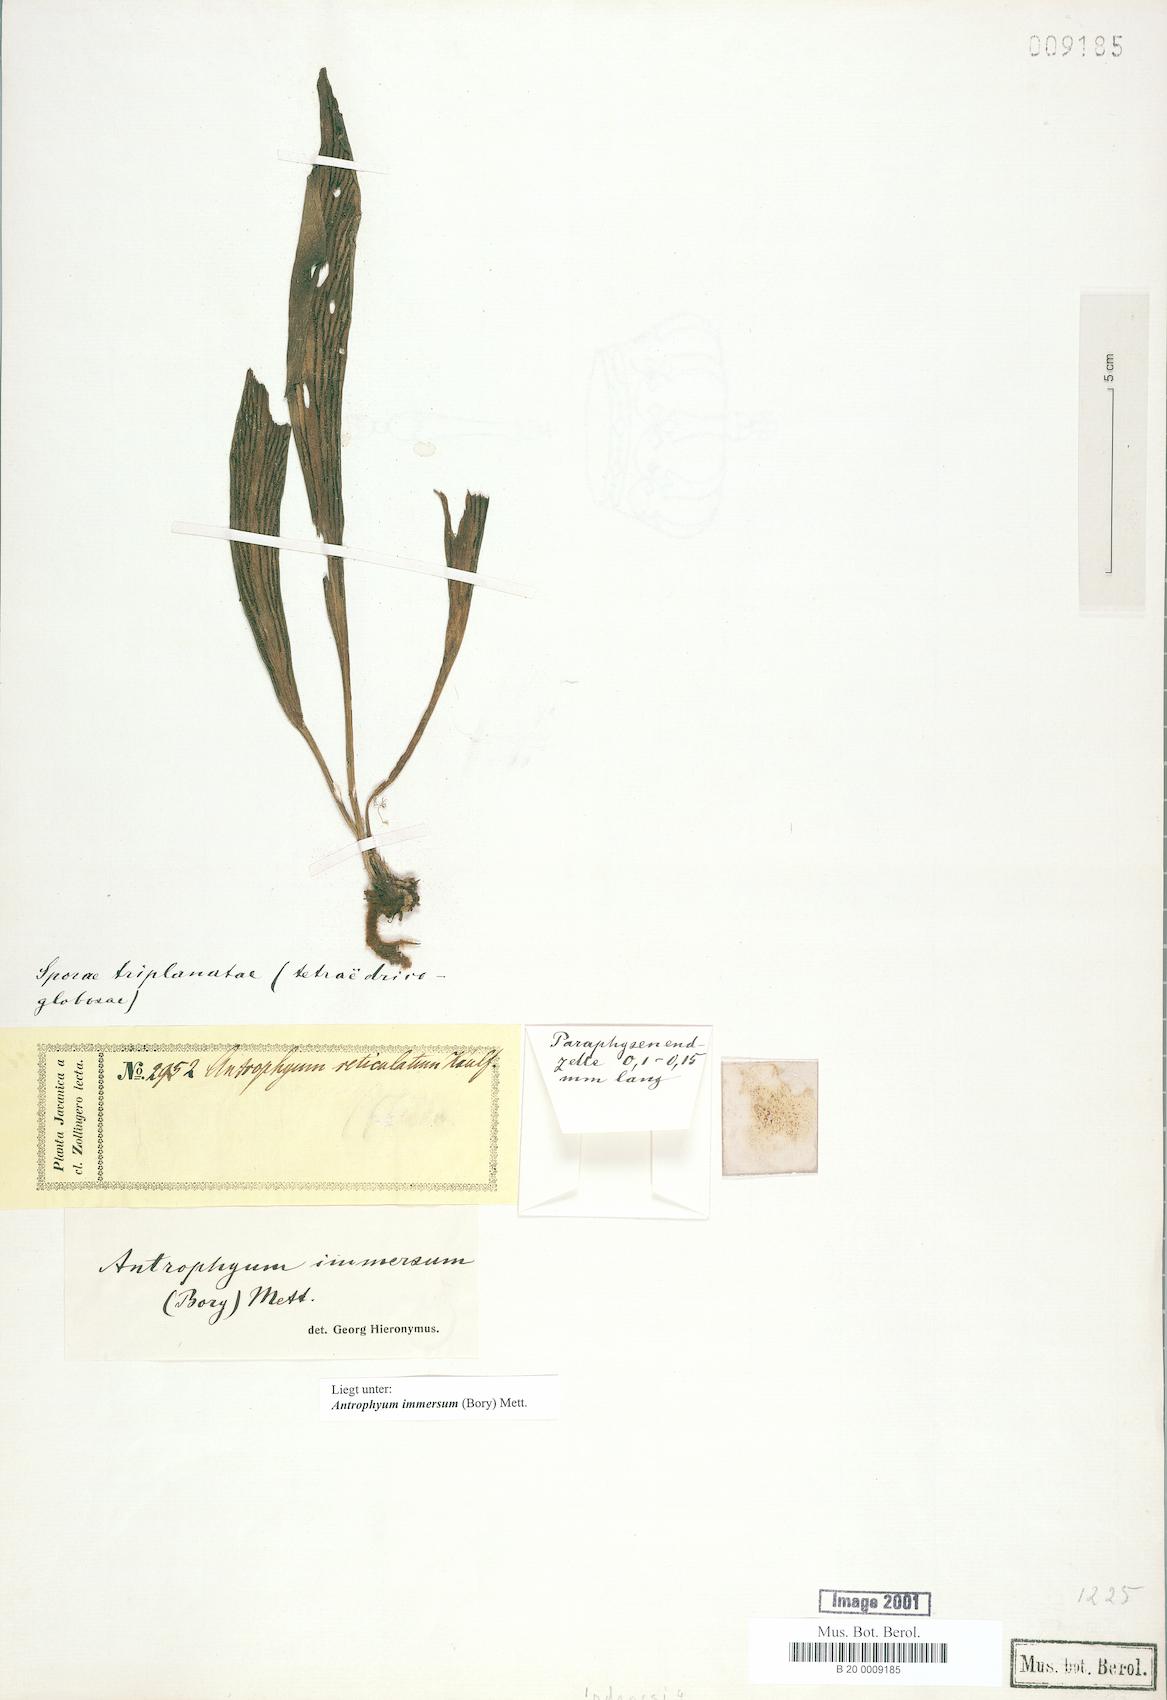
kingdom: Plantae
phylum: Tracheophyta
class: Polypodiopsida
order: Polypodiales
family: Pteridaceae
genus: Antrophyum
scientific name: Antrophyum parvulum
